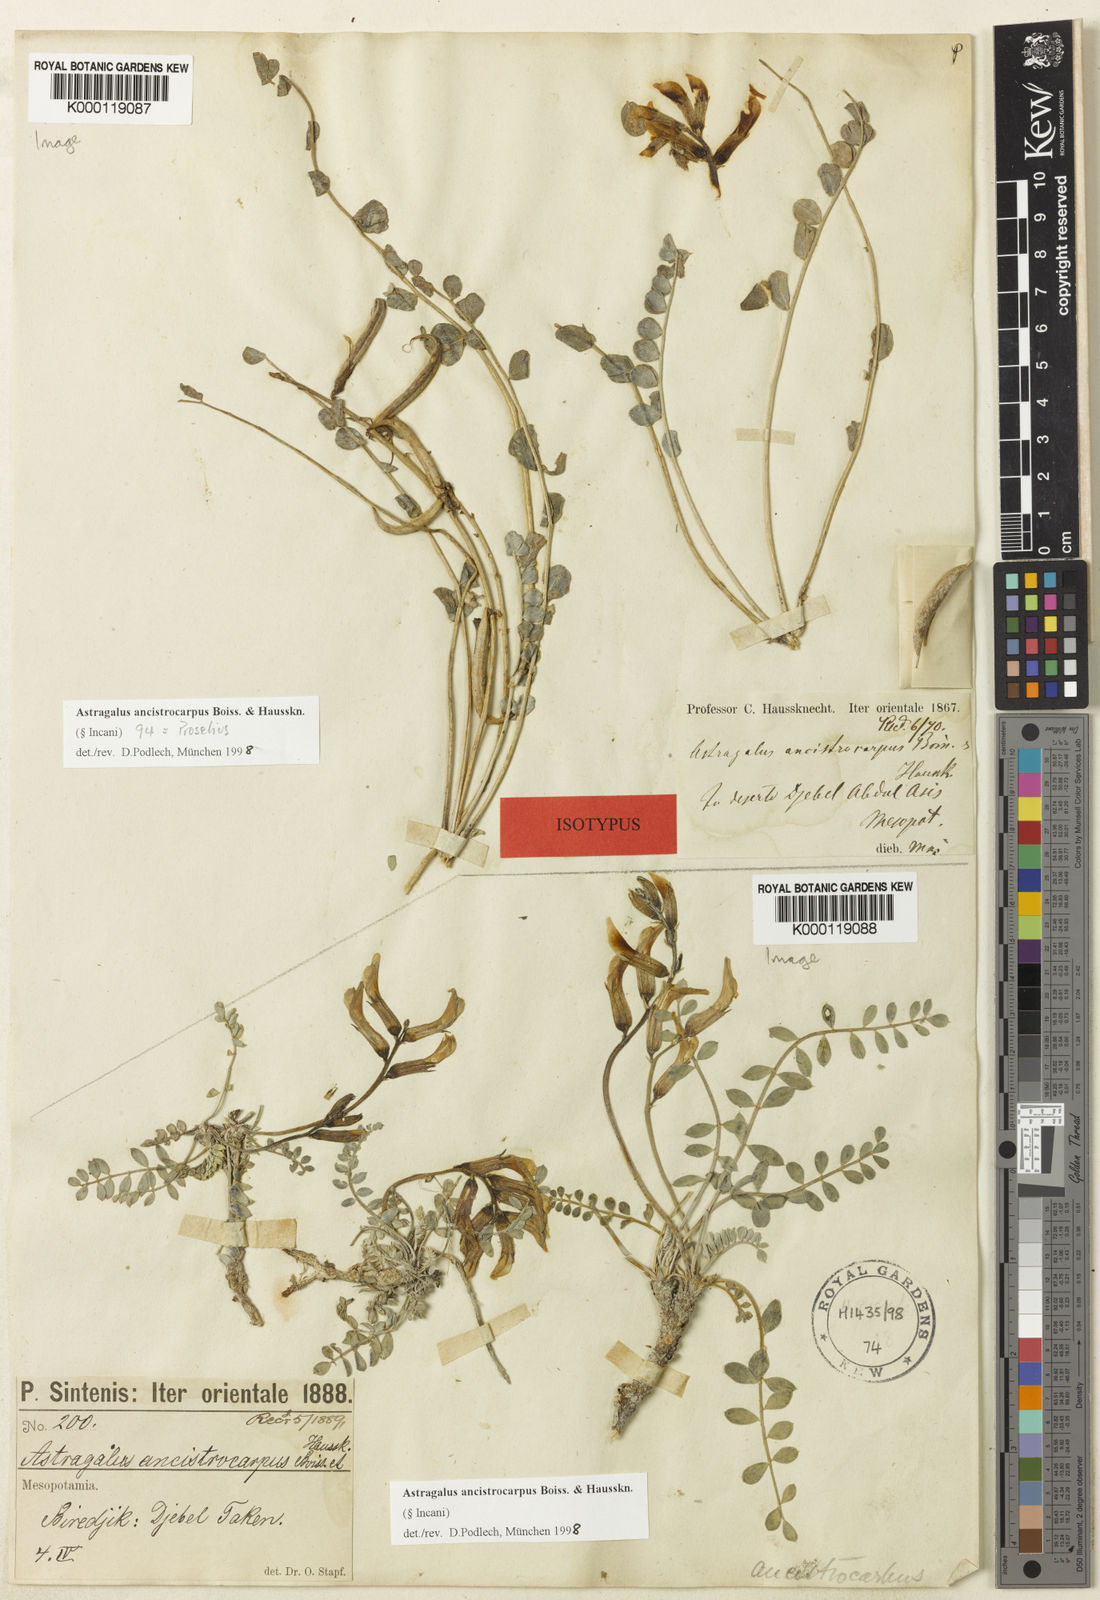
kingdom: Plantae
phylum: Tracheophyta
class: Magnoliopsida
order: Fabales
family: Fabaceae
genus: Astragalus
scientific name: Astragalus ancistrocarpus
